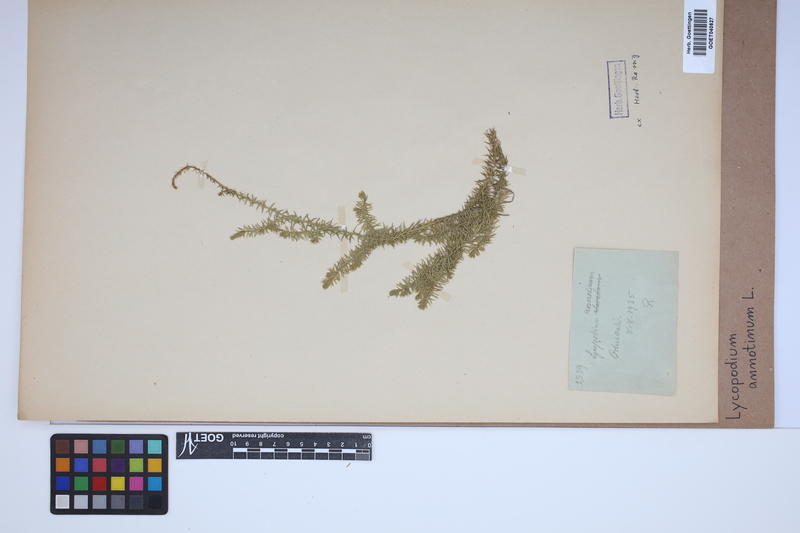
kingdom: Plantae
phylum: Tracheophyta
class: Lycopodiopsida
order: Lycopodiales
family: Lycopodiaceae
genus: Spinulum
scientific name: Spinulum annotinum
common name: Interrupted club-moss
